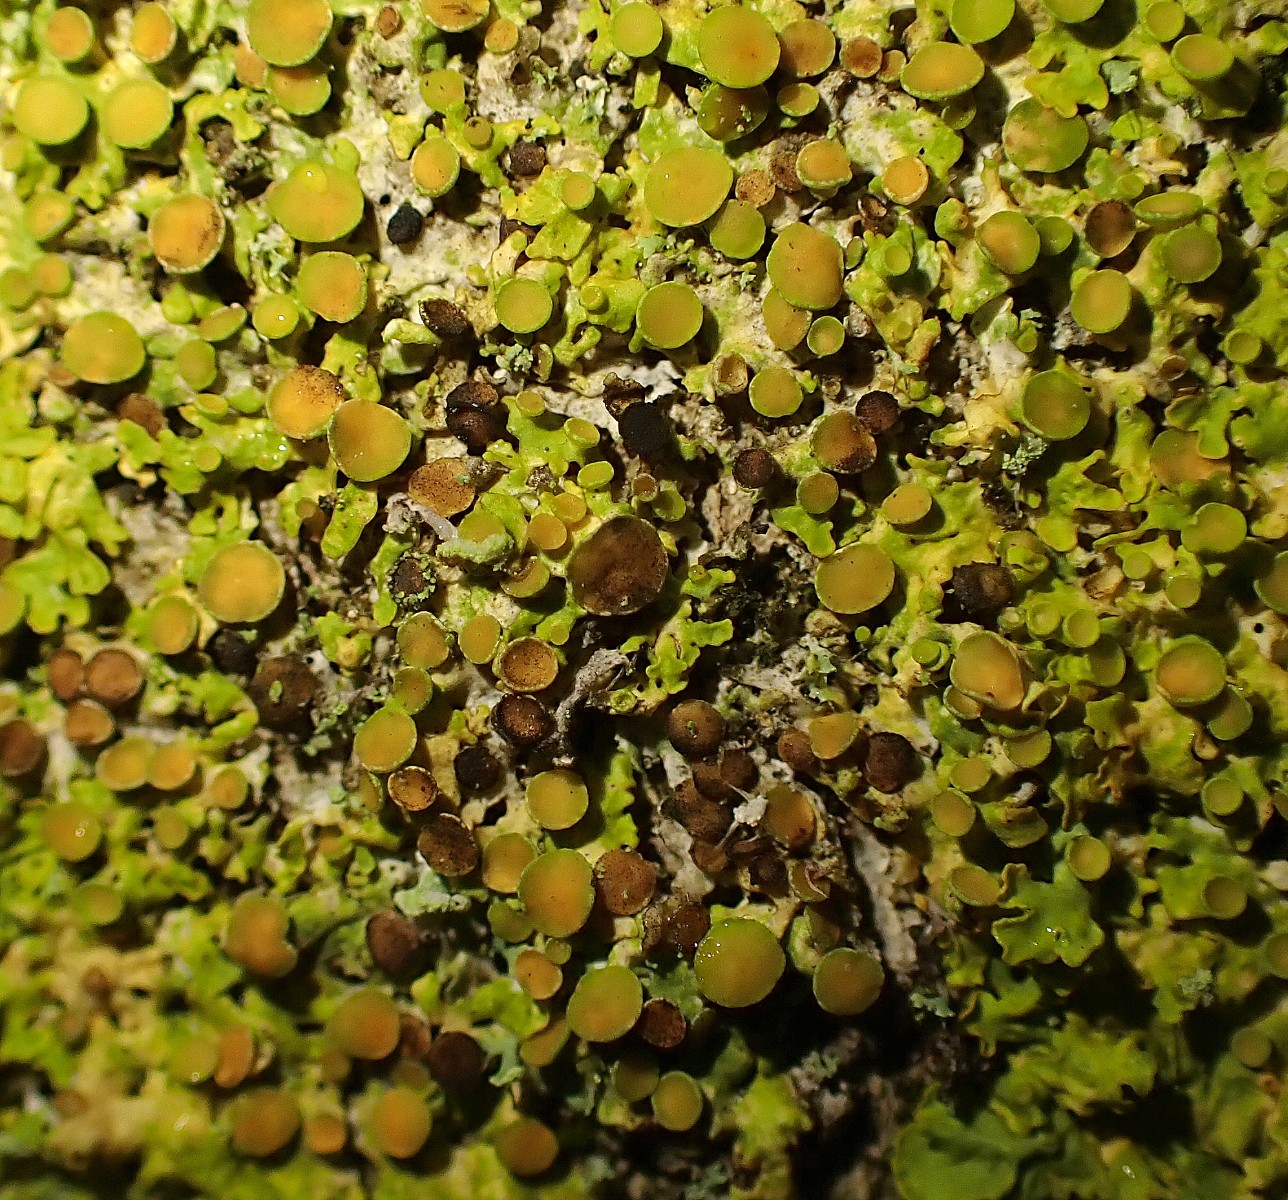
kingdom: Fungi
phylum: Ascomycota
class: Dothideomycetes
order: Mycosphaerellales
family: Teratosphaeriaceae
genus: Xanthoriicola
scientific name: Xanthoriicola physciae
